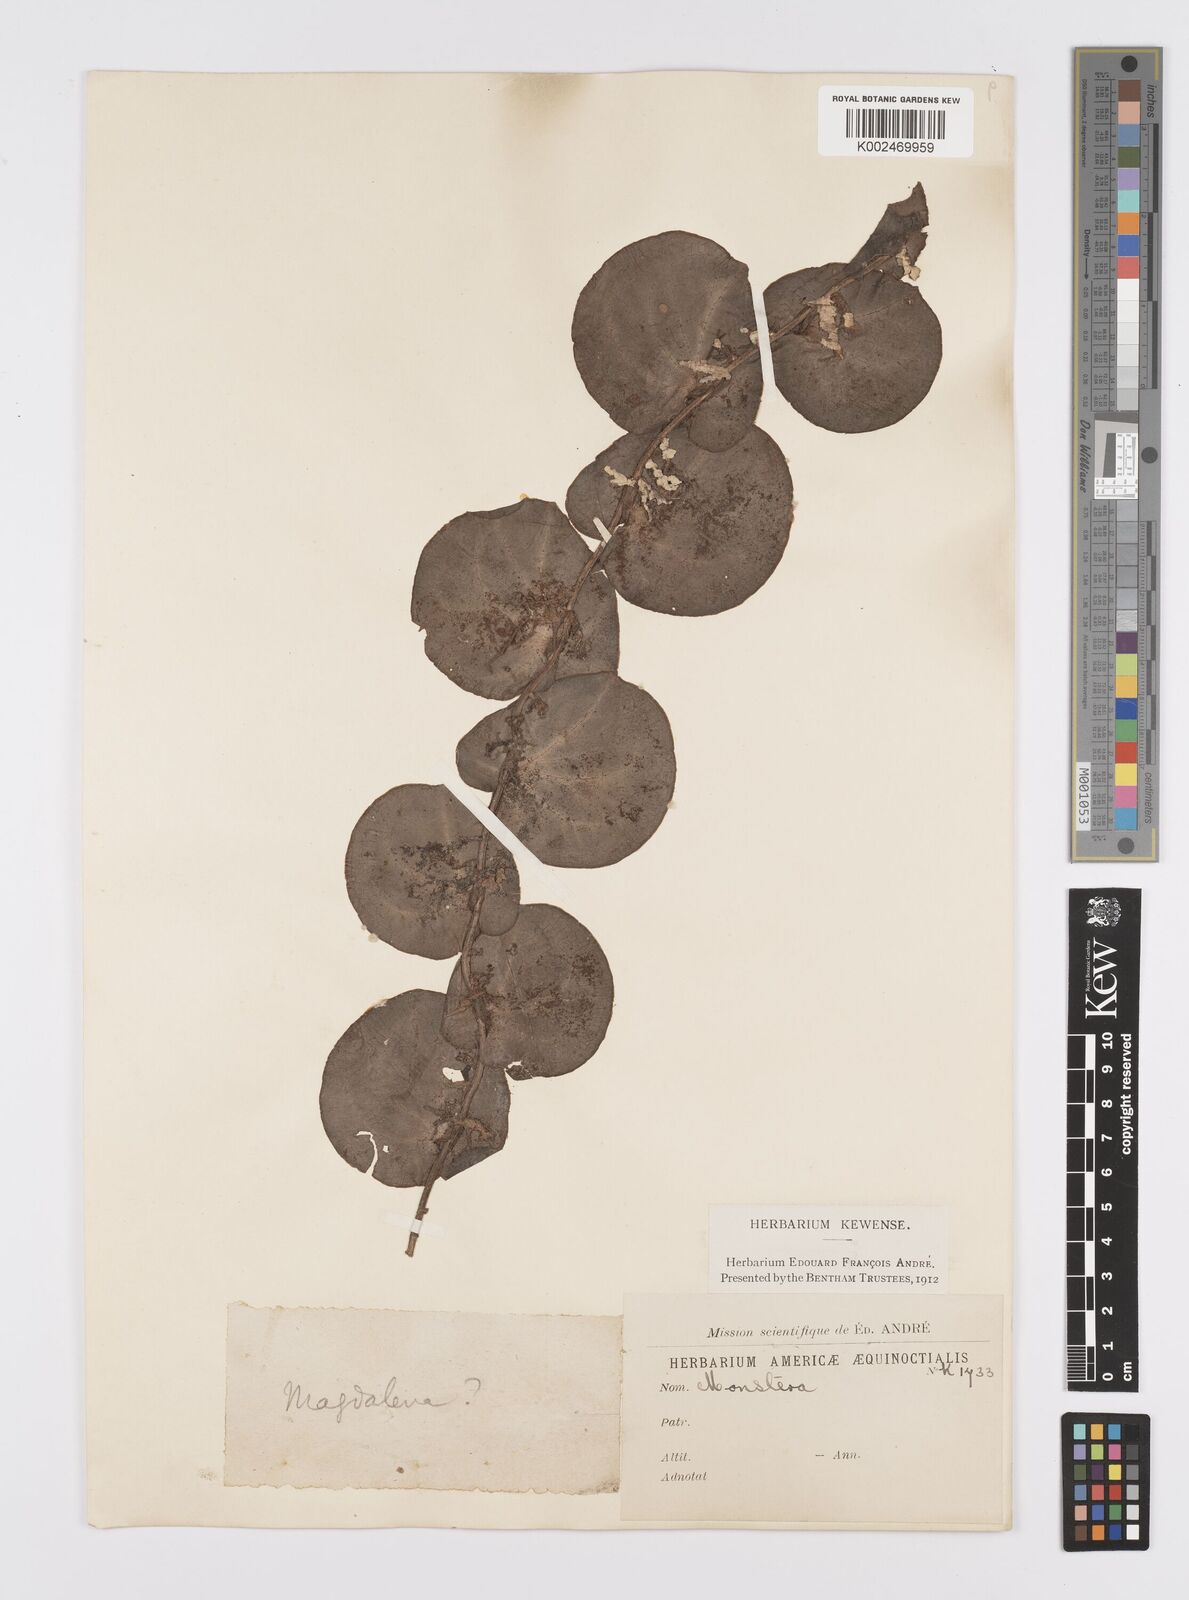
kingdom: Plantae
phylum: Tracheophyta
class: Liliopsida
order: Alismatales
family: Araceae
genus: Monstera
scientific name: Monstera
